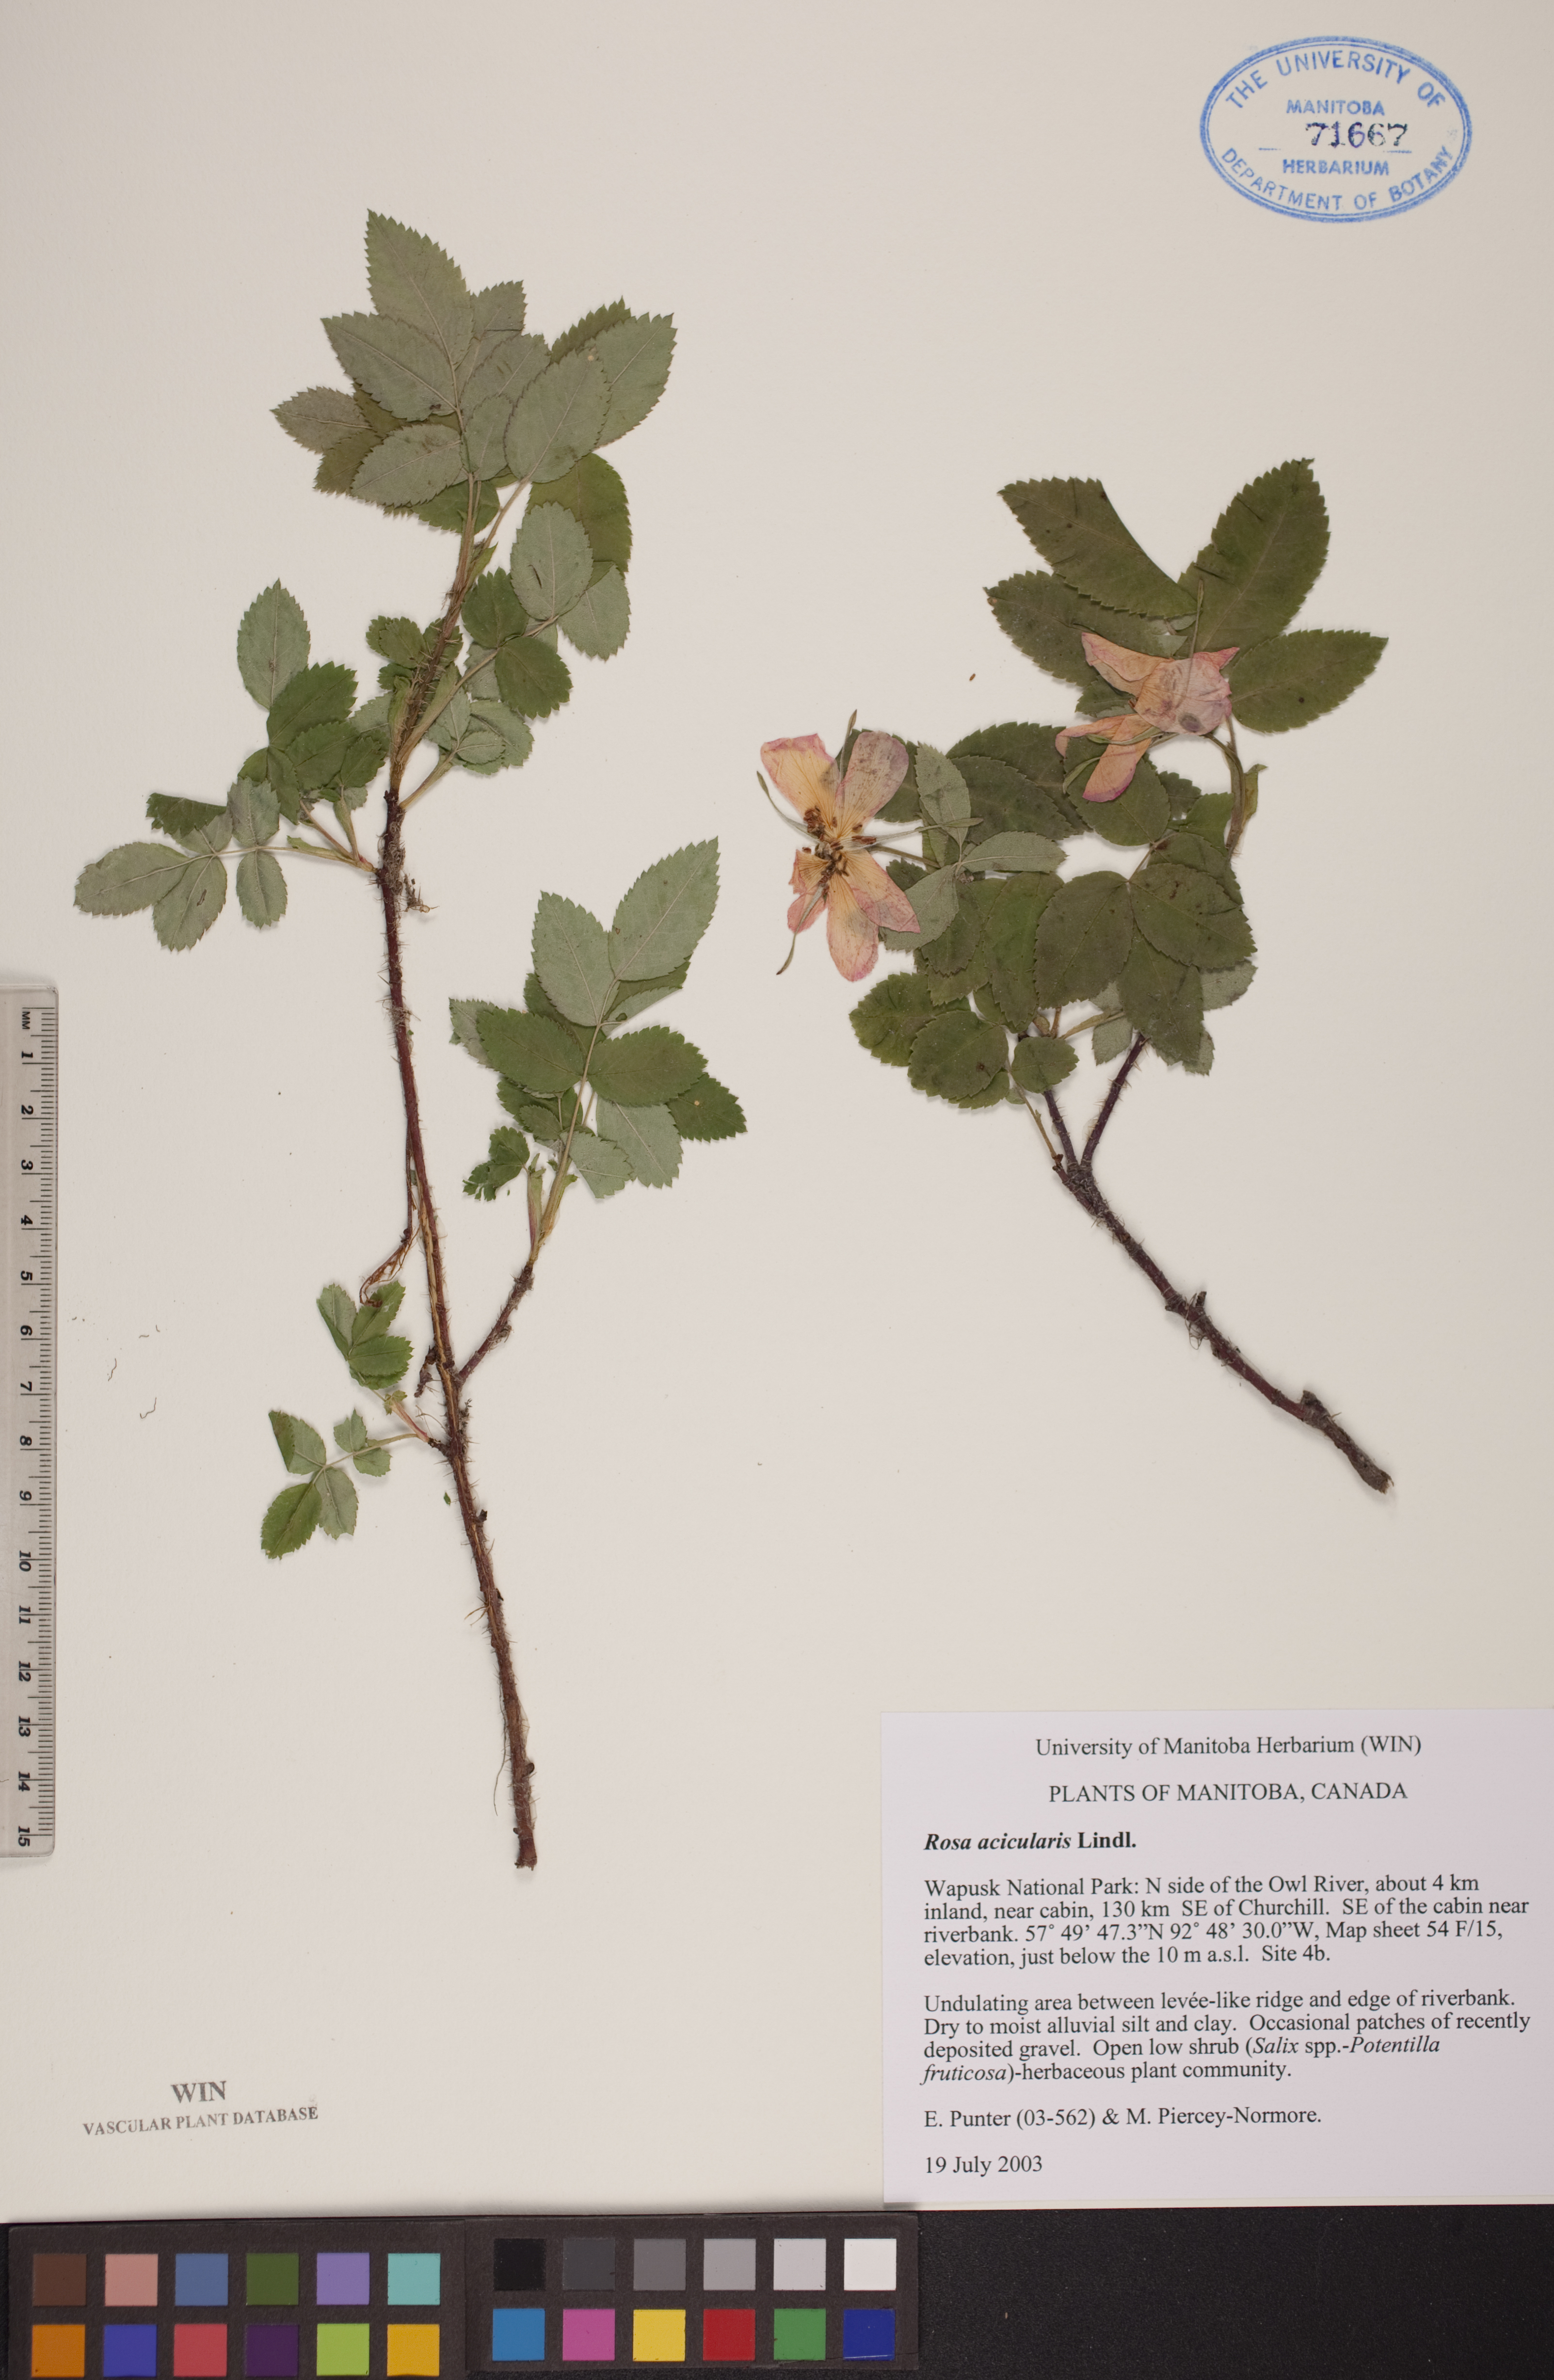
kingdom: Plantae
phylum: Tracheophyta
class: Magnoliopsida
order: Rosales
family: Rosaceae
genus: Rosa
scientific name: Rosa acicularis
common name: Prickly rose
